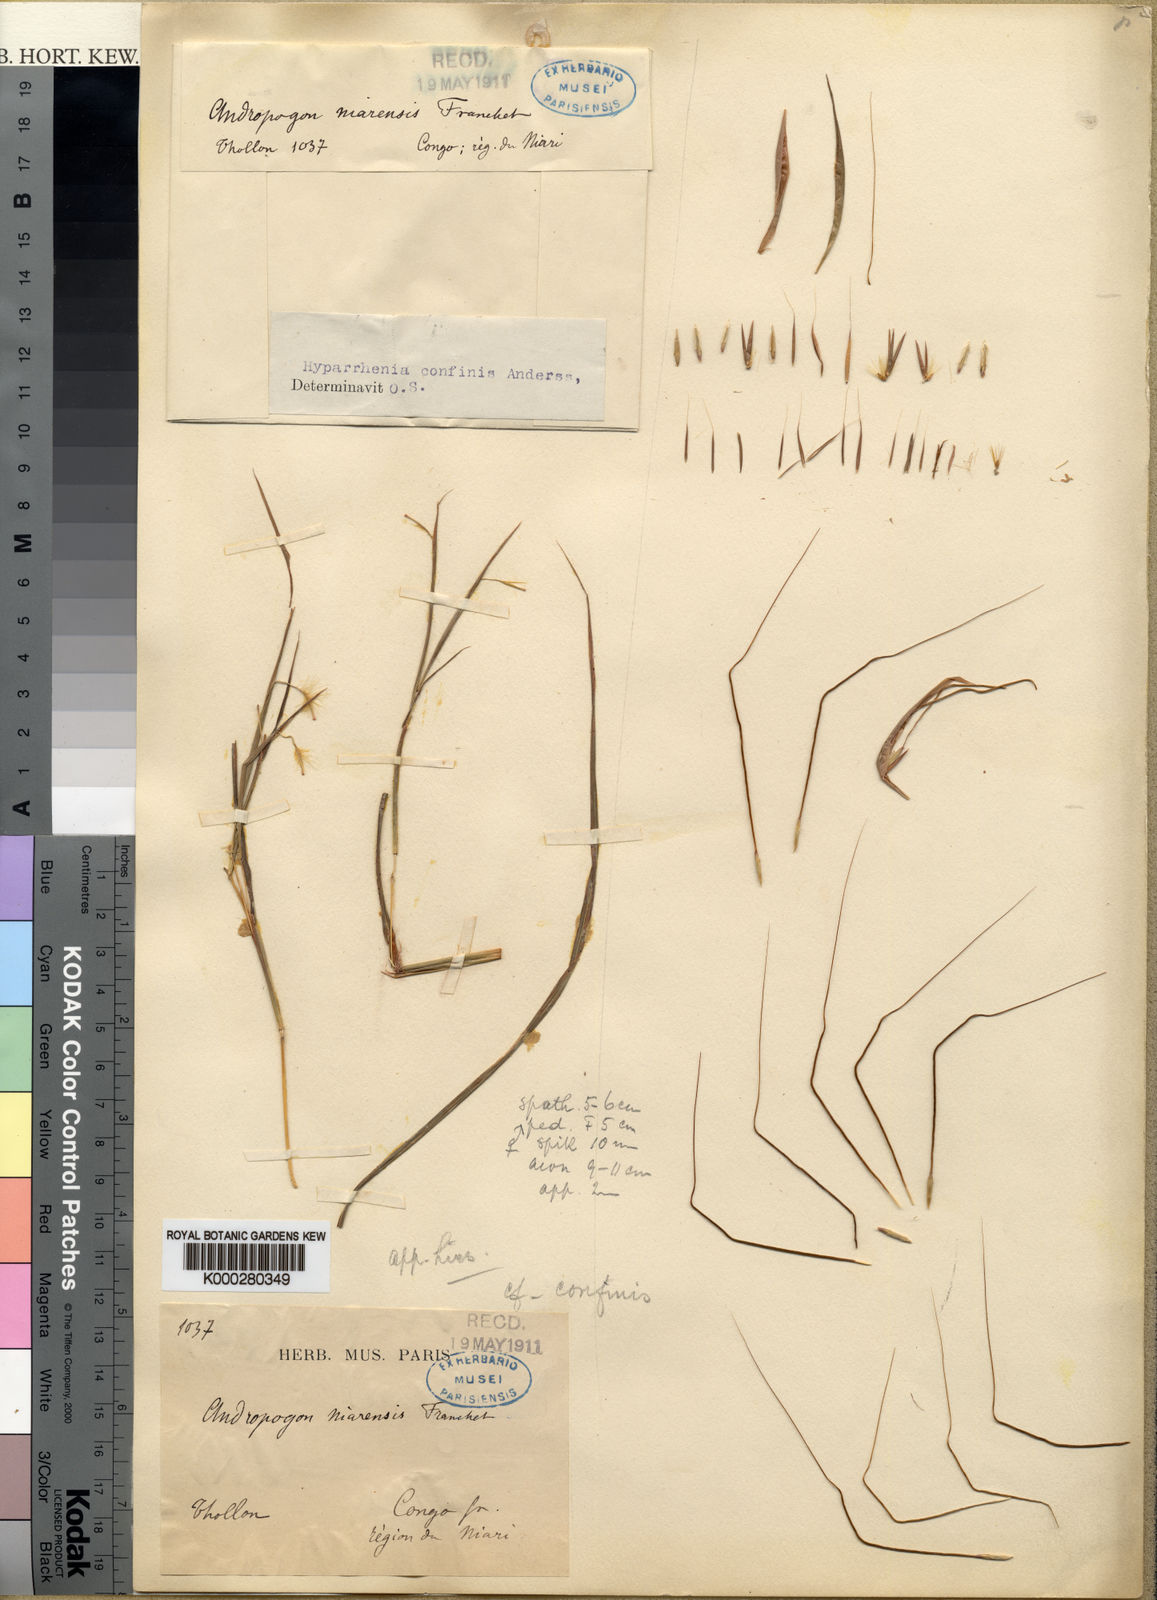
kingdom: Plantae
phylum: Tracheophyta
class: Liliopsida
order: Poales
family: Poaceae
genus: Hyparrhenia
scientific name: Hyparrhenia
